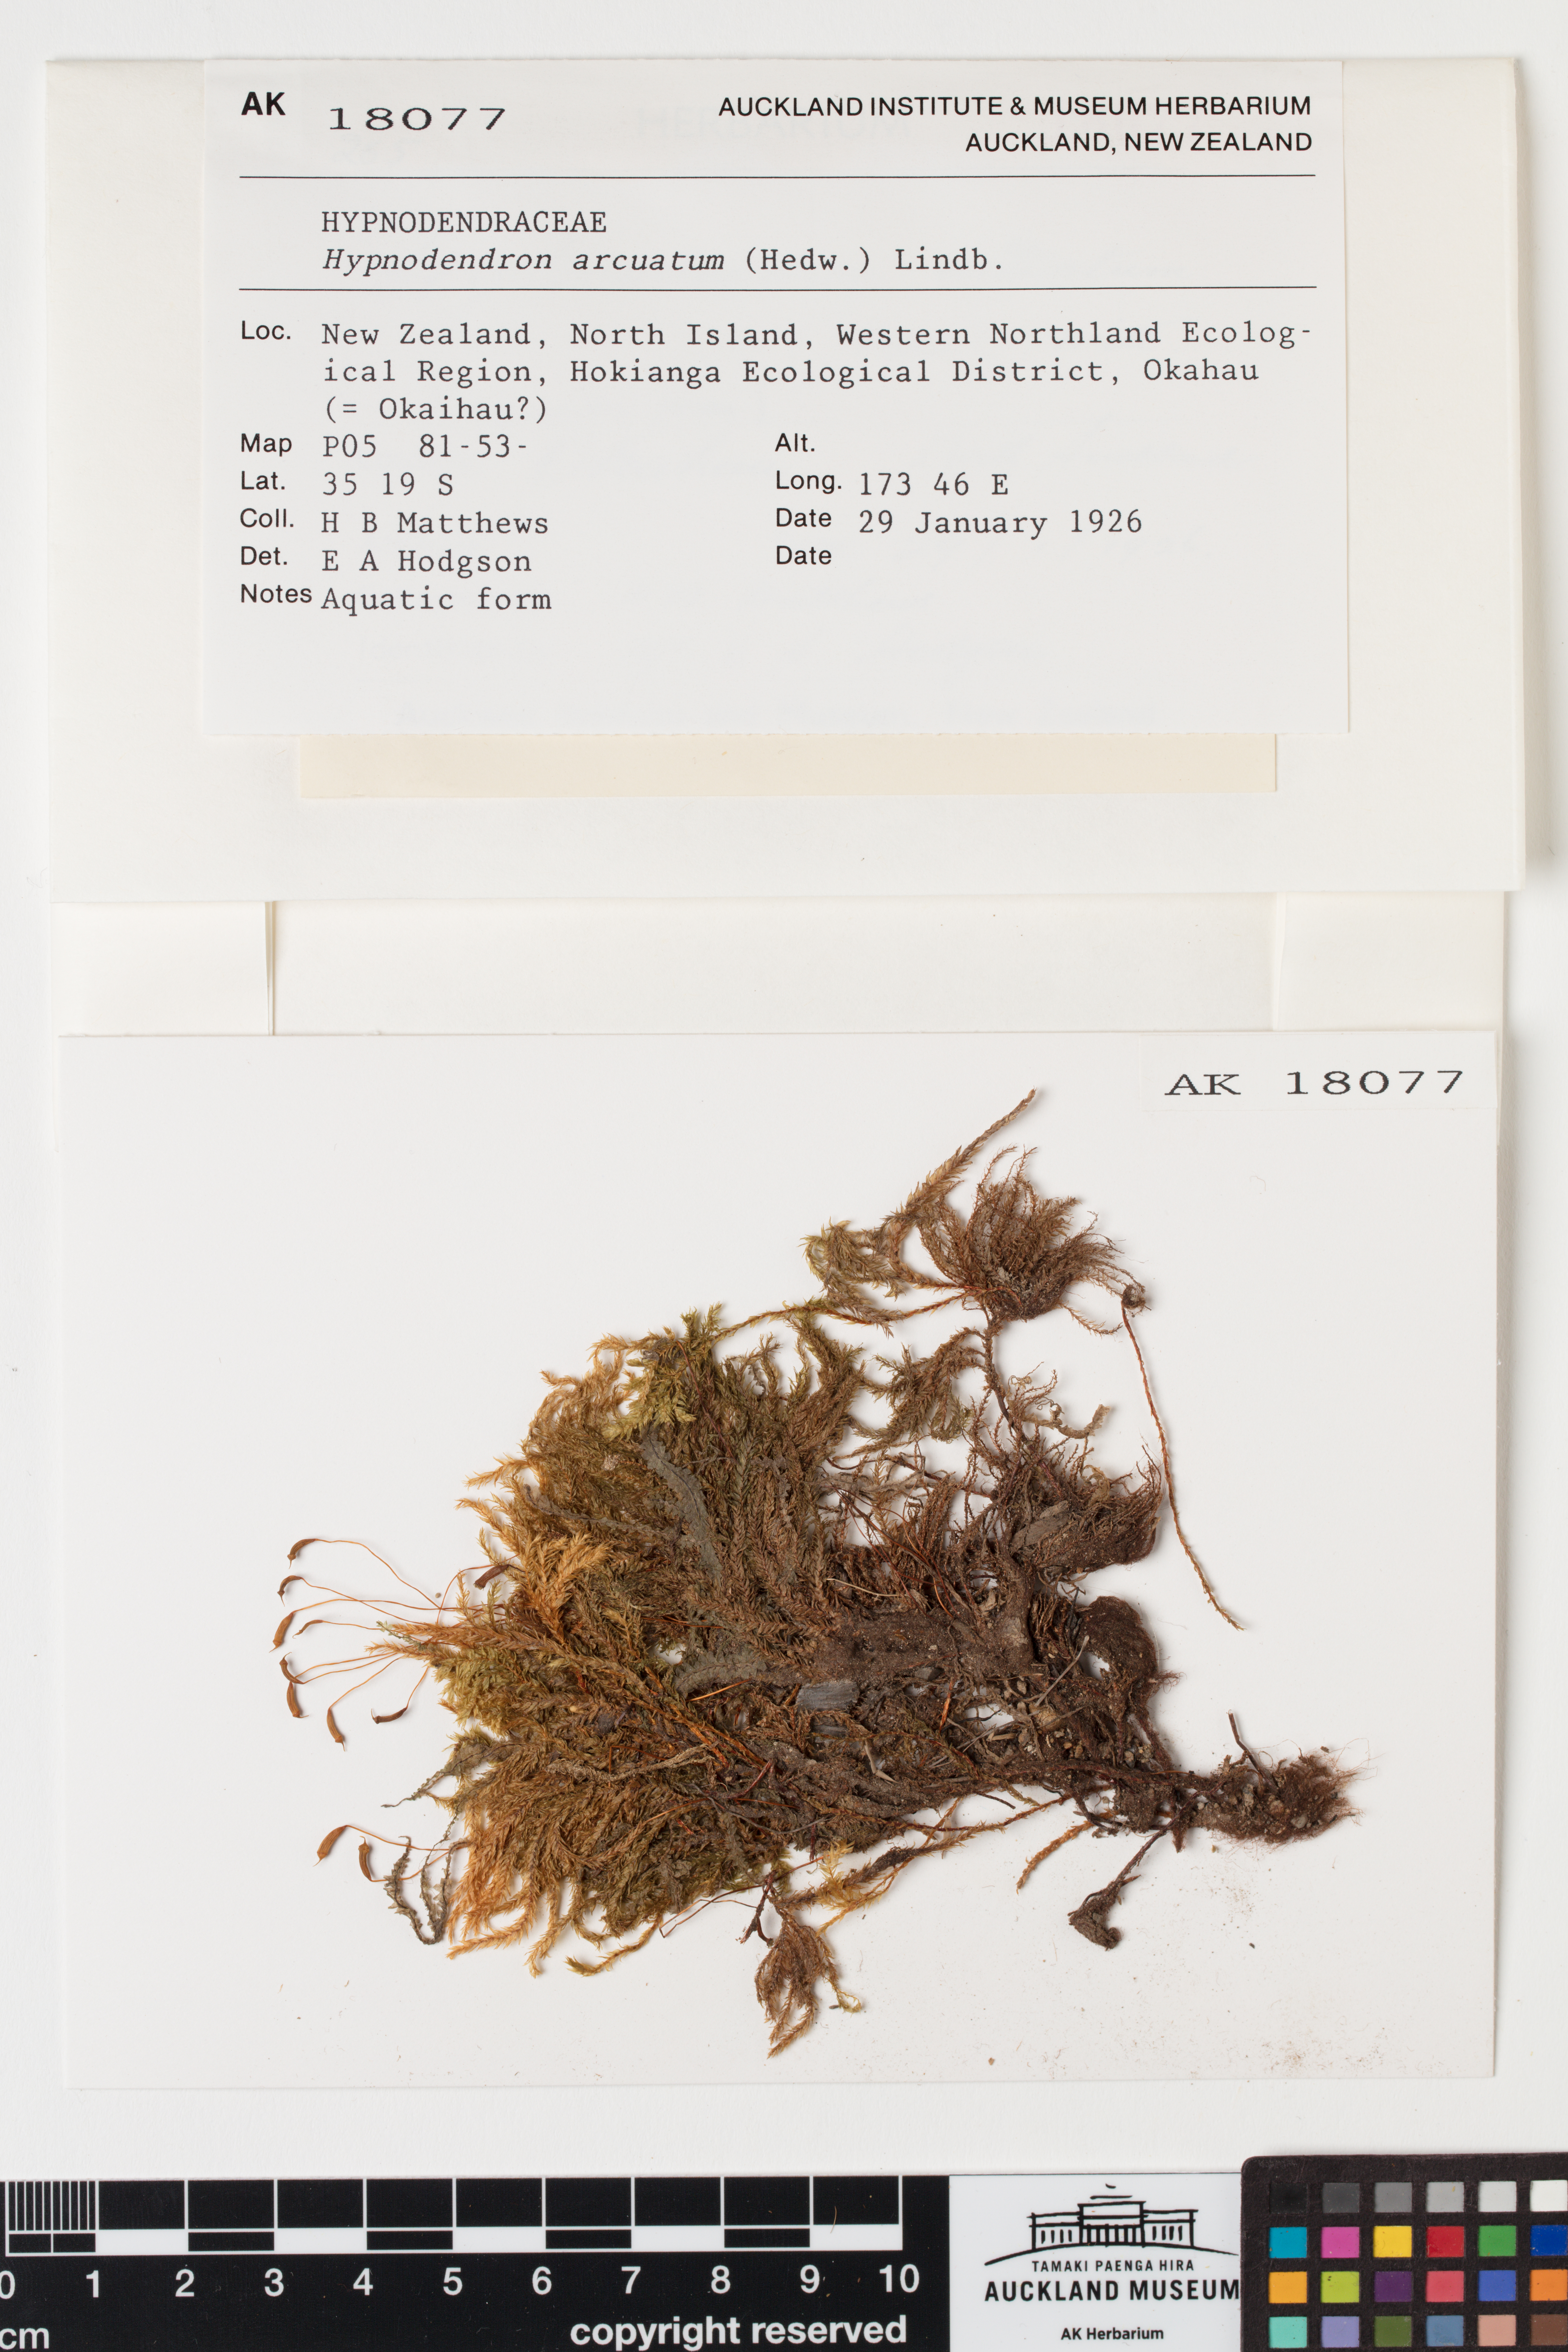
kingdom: Plantae
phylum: Bryophyta
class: Bryopsida
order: Hypnodendrales
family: Spiridentaceae
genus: Hypnodendron
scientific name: Hypnodendron arcuatum
